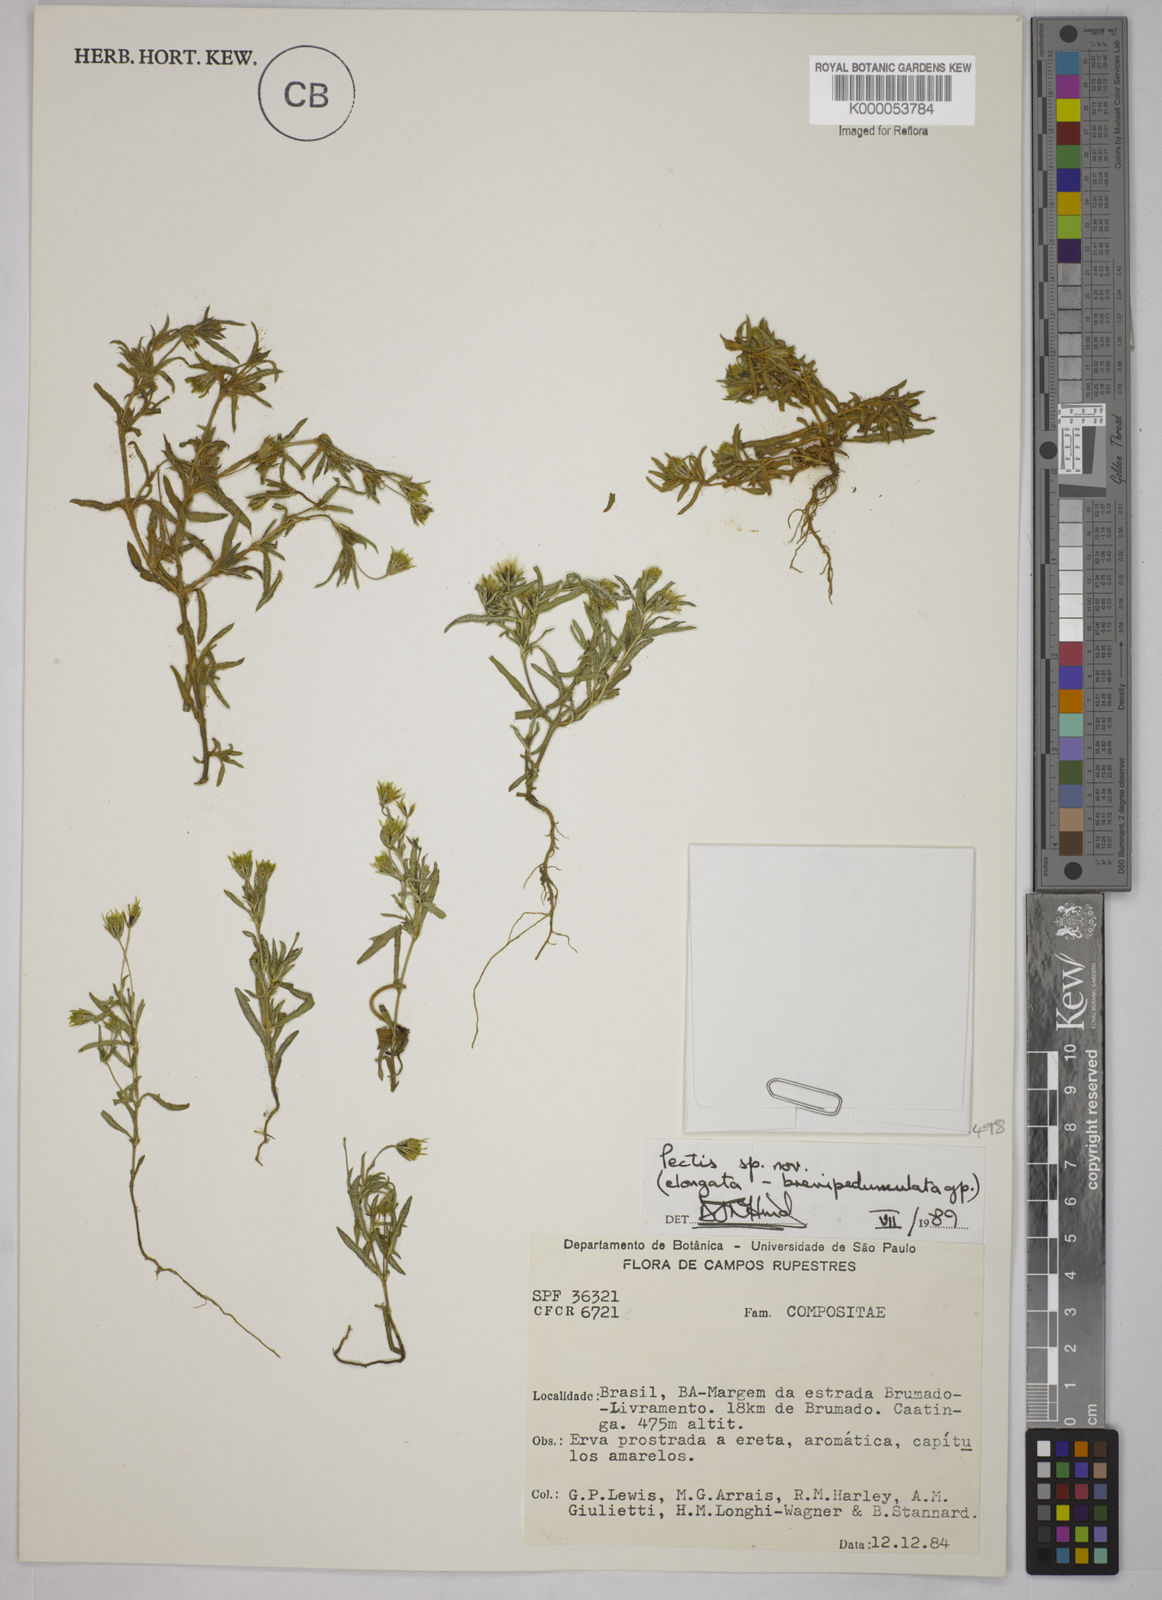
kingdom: Plantae
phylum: Tracheophyta
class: Magnoliopsida
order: Asterales
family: Asteraceae
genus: Pectis
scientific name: Pectis elongata
